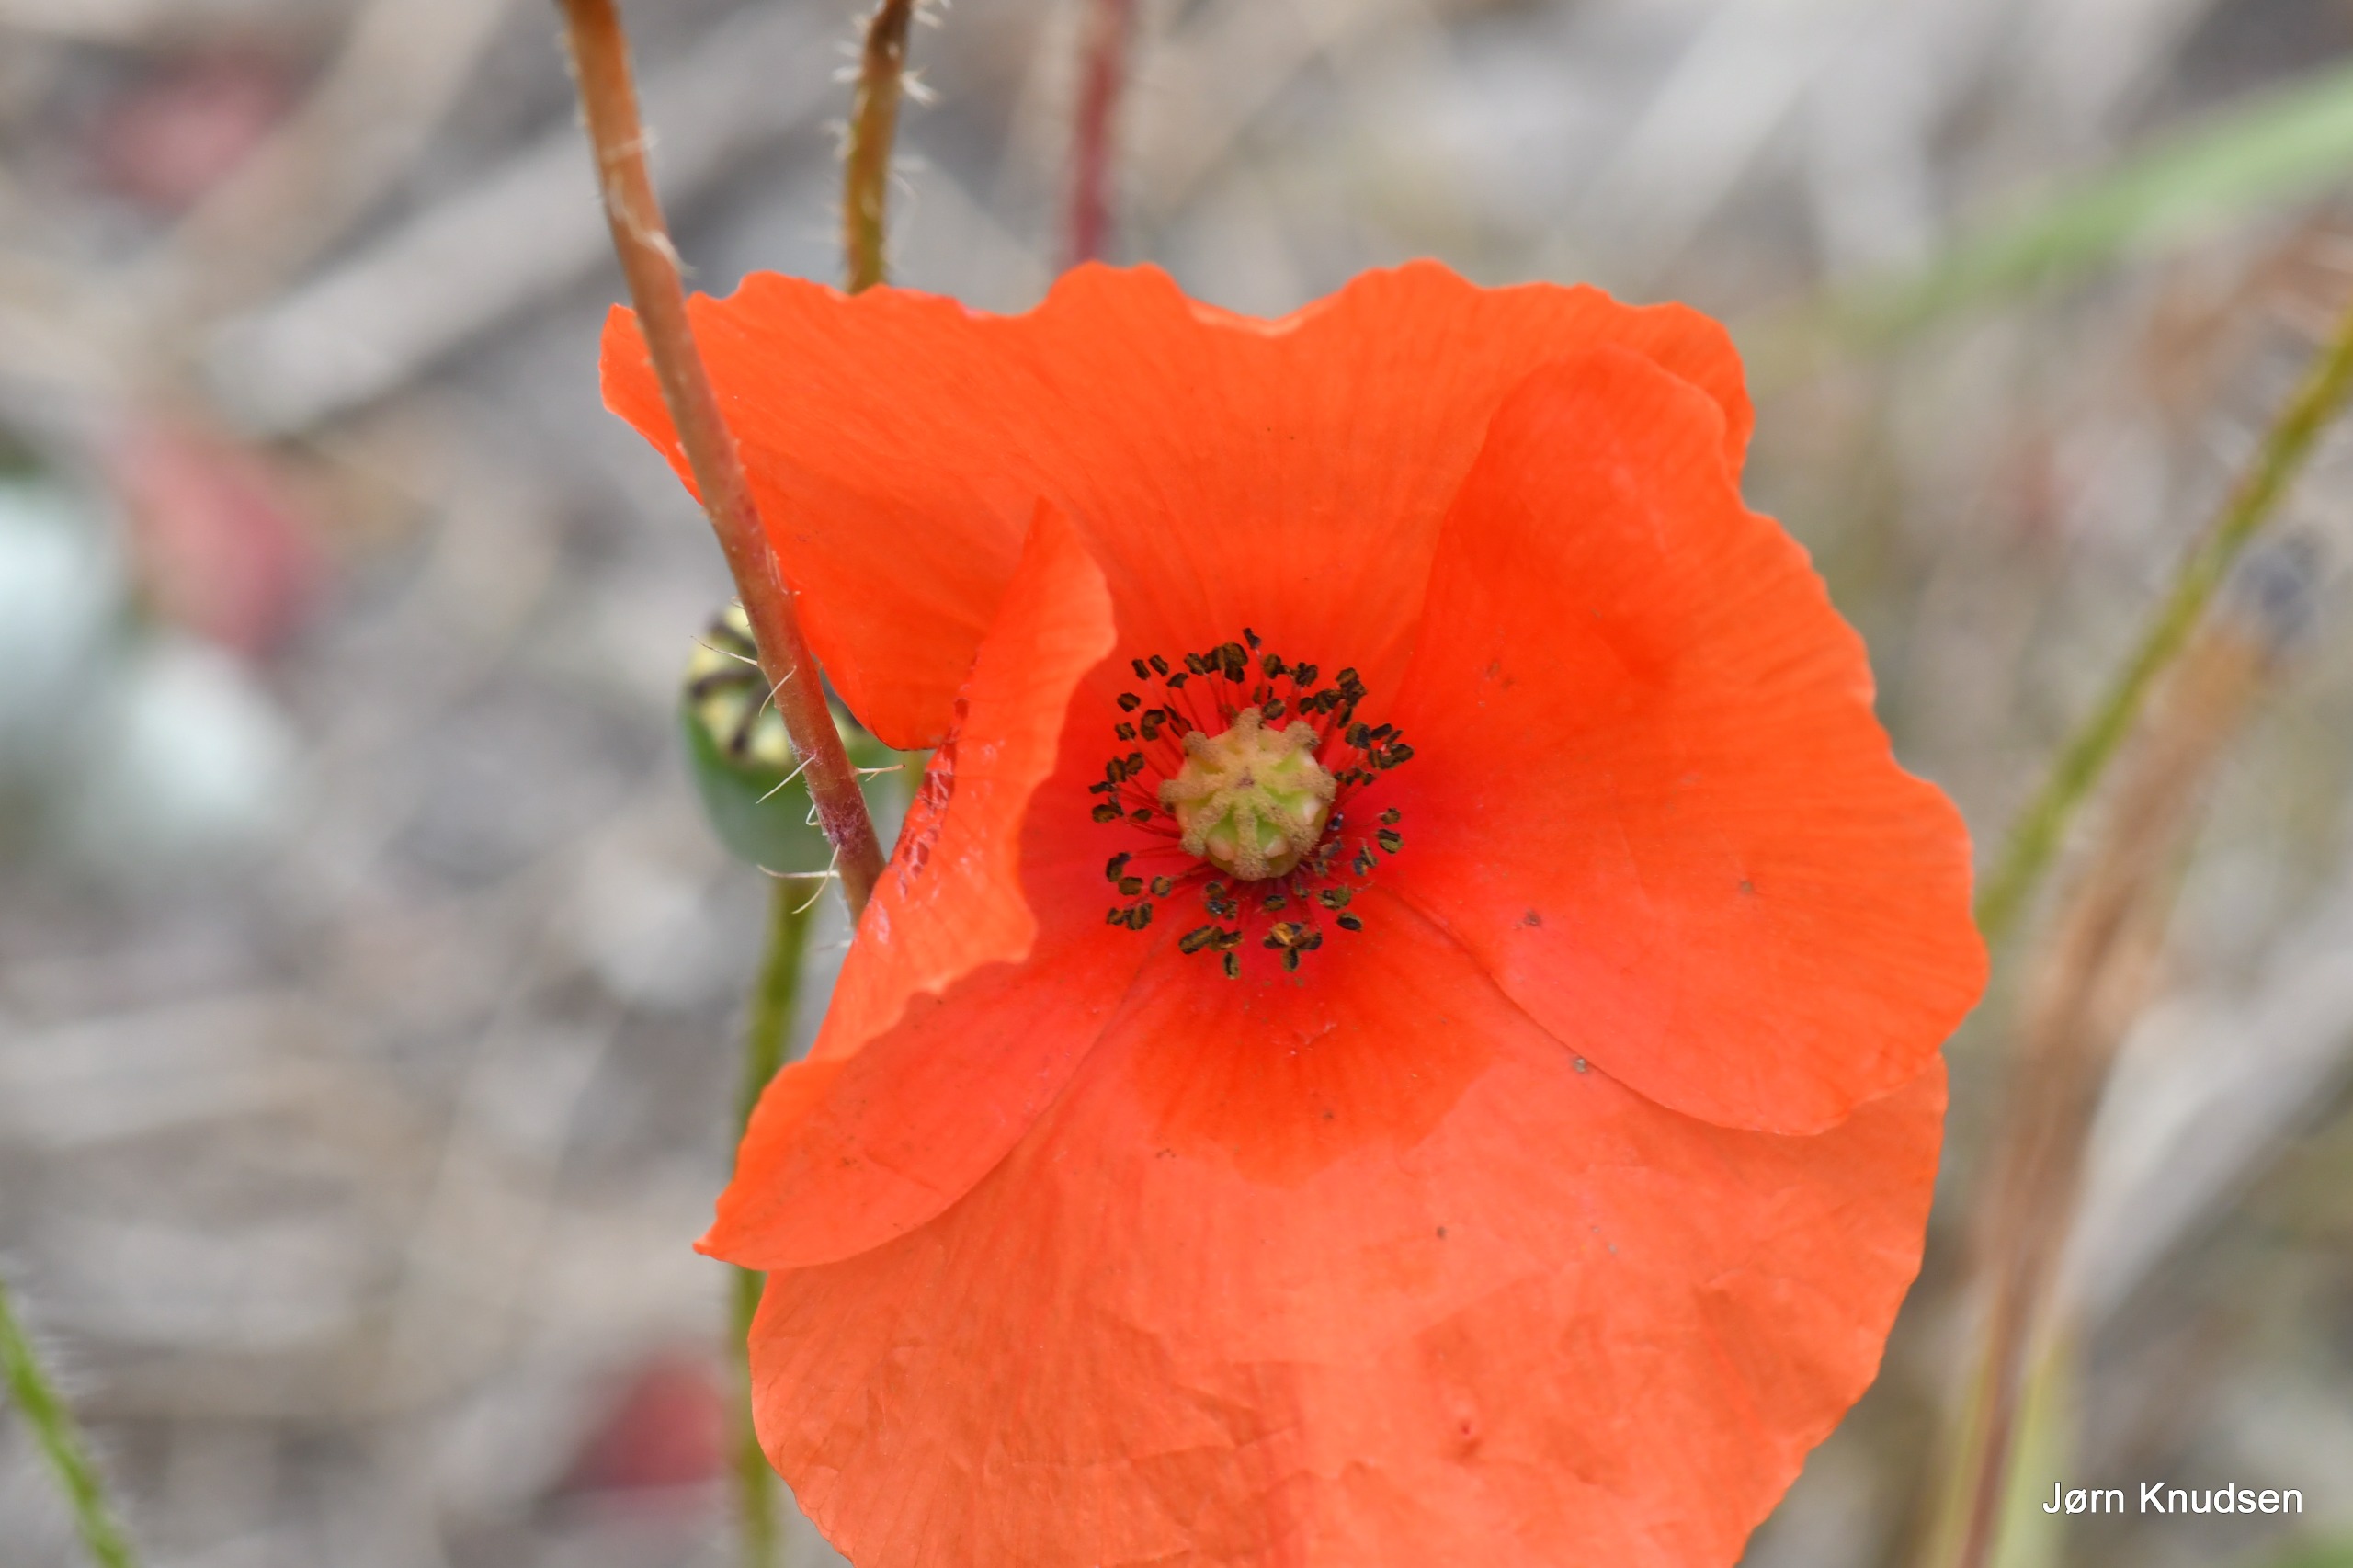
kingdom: Plantae
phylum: Tracheophyta
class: Magnoliopsida
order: Ranunculales
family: Papaveraceae
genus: Papaver
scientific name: Papaver rhoeas
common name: Korn-valmue
